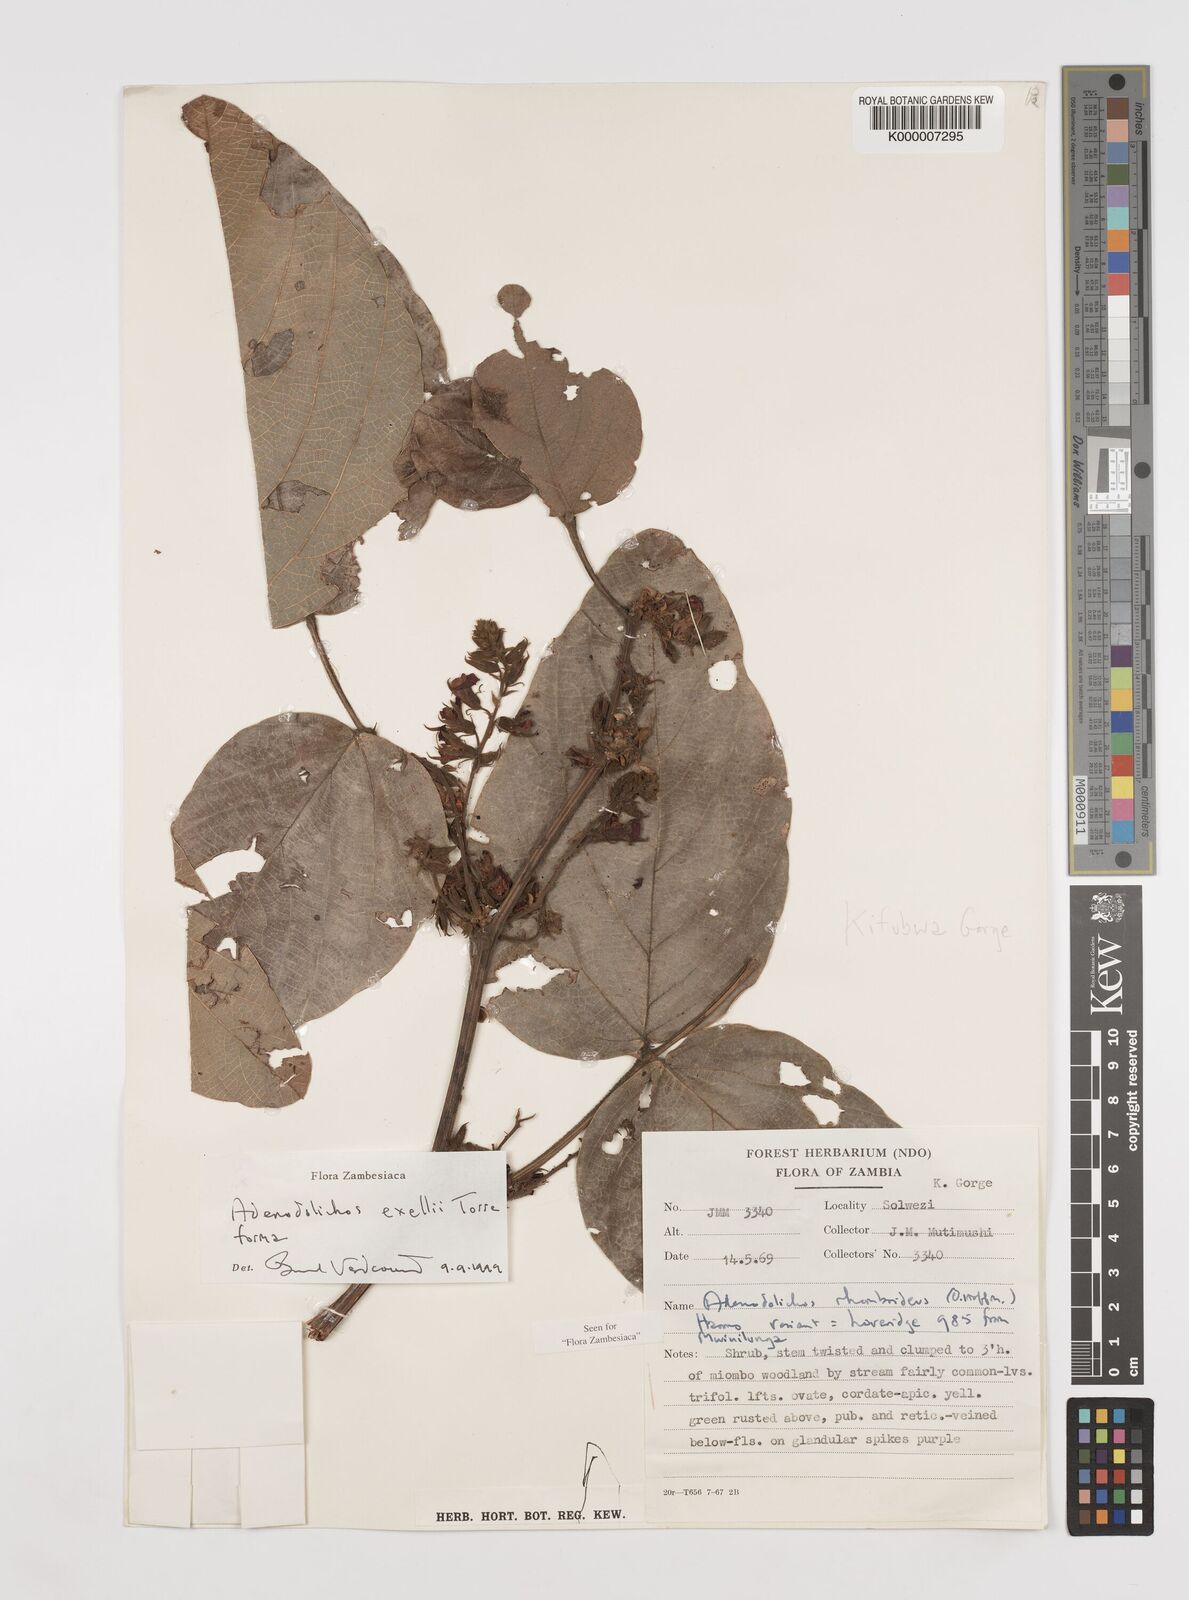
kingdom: Plantae
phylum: Tracheophyta
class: Magnoliopsida
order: Fabales
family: Fabaceae
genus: Adenodolichos
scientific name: Adenodolichos exellii
